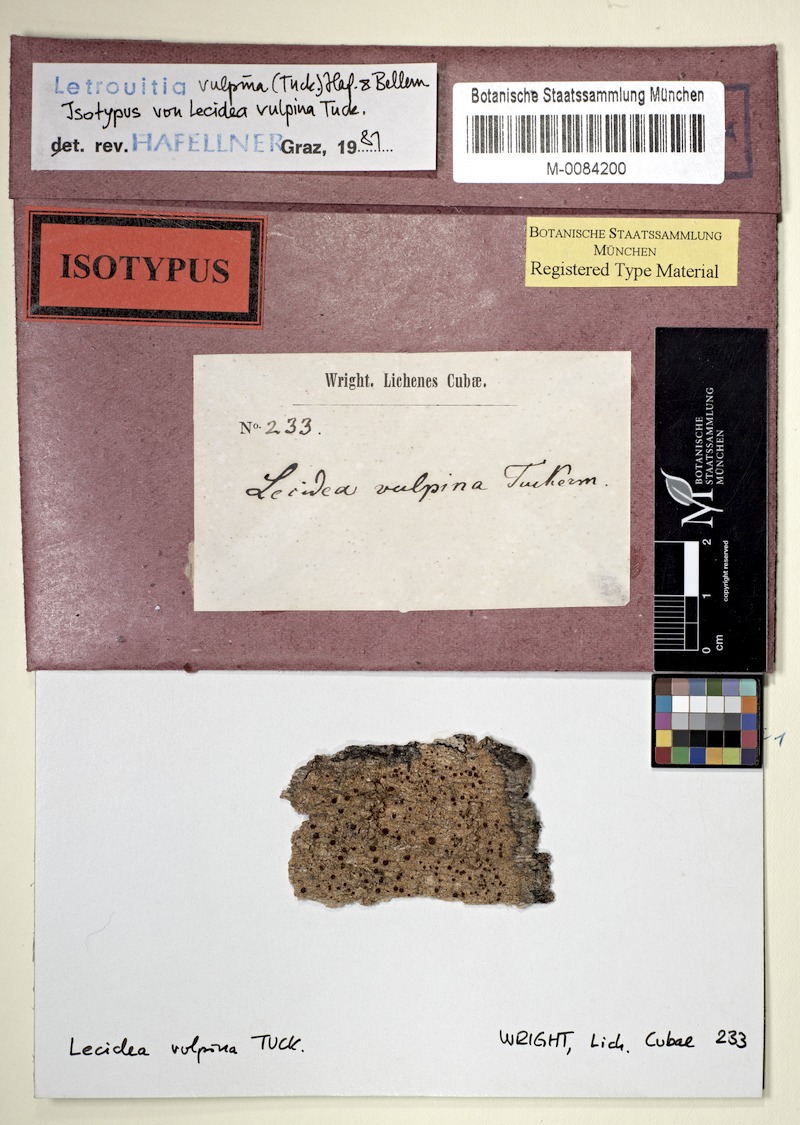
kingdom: Fungi
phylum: Ascomycota
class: Lecanoromycetes
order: Teloschistales
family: Letrouitiaceae
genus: Letrouitia
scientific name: Letrouitia vulpina
